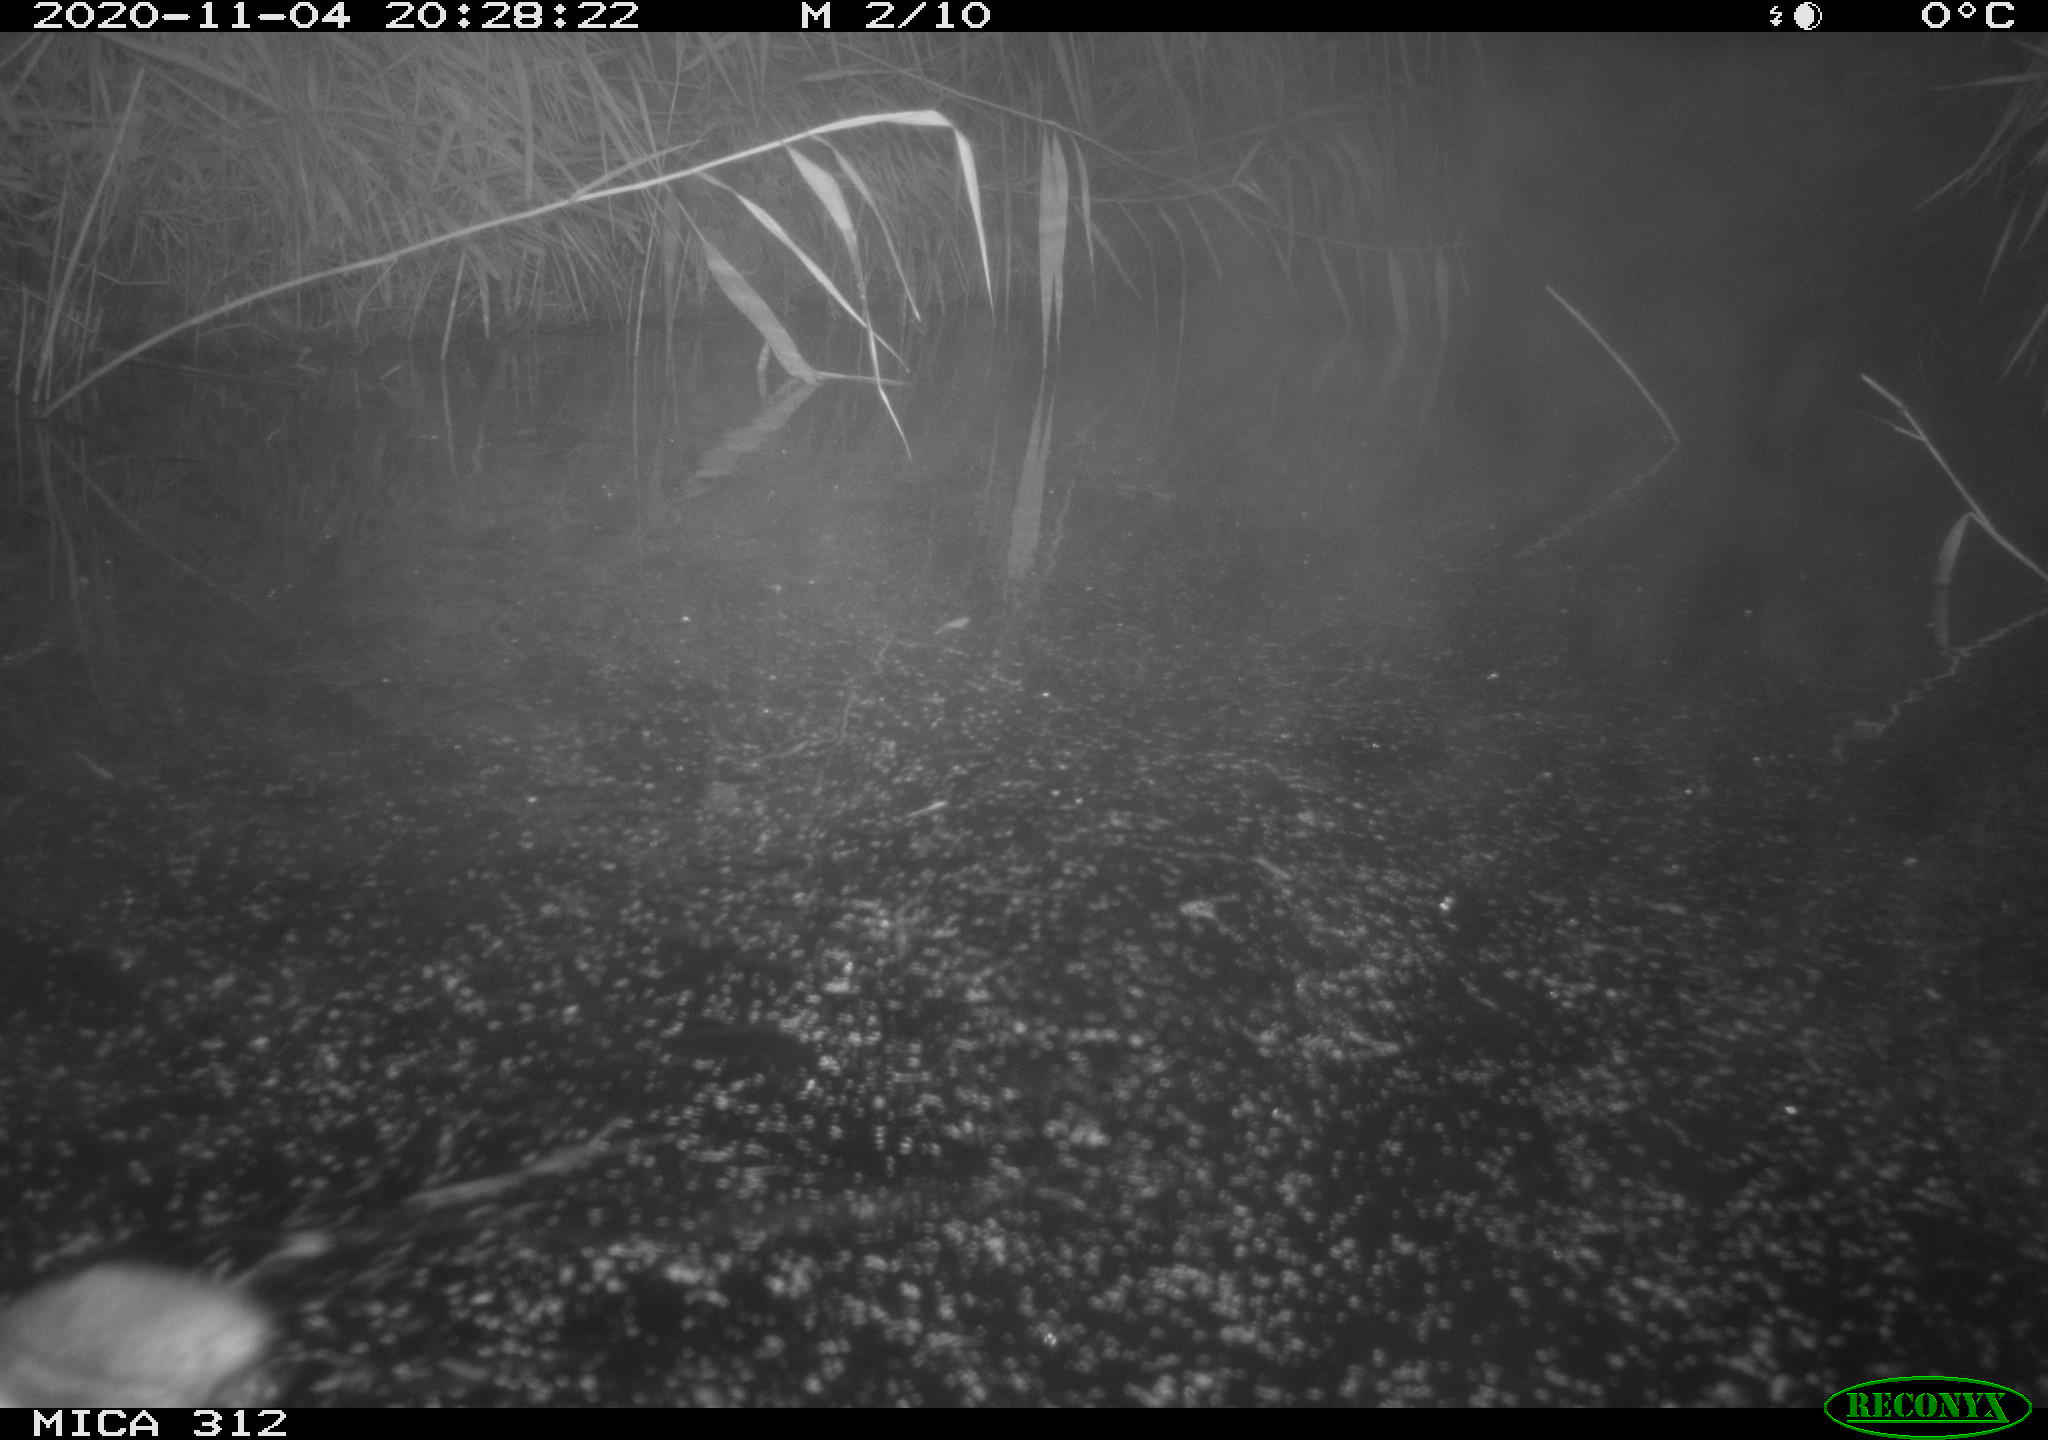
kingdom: Animalia
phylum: Chordata
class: Mammalia
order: Rodentia
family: Muridae
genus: Rattus
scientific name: Rattus norvegicus
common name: Brown rat
